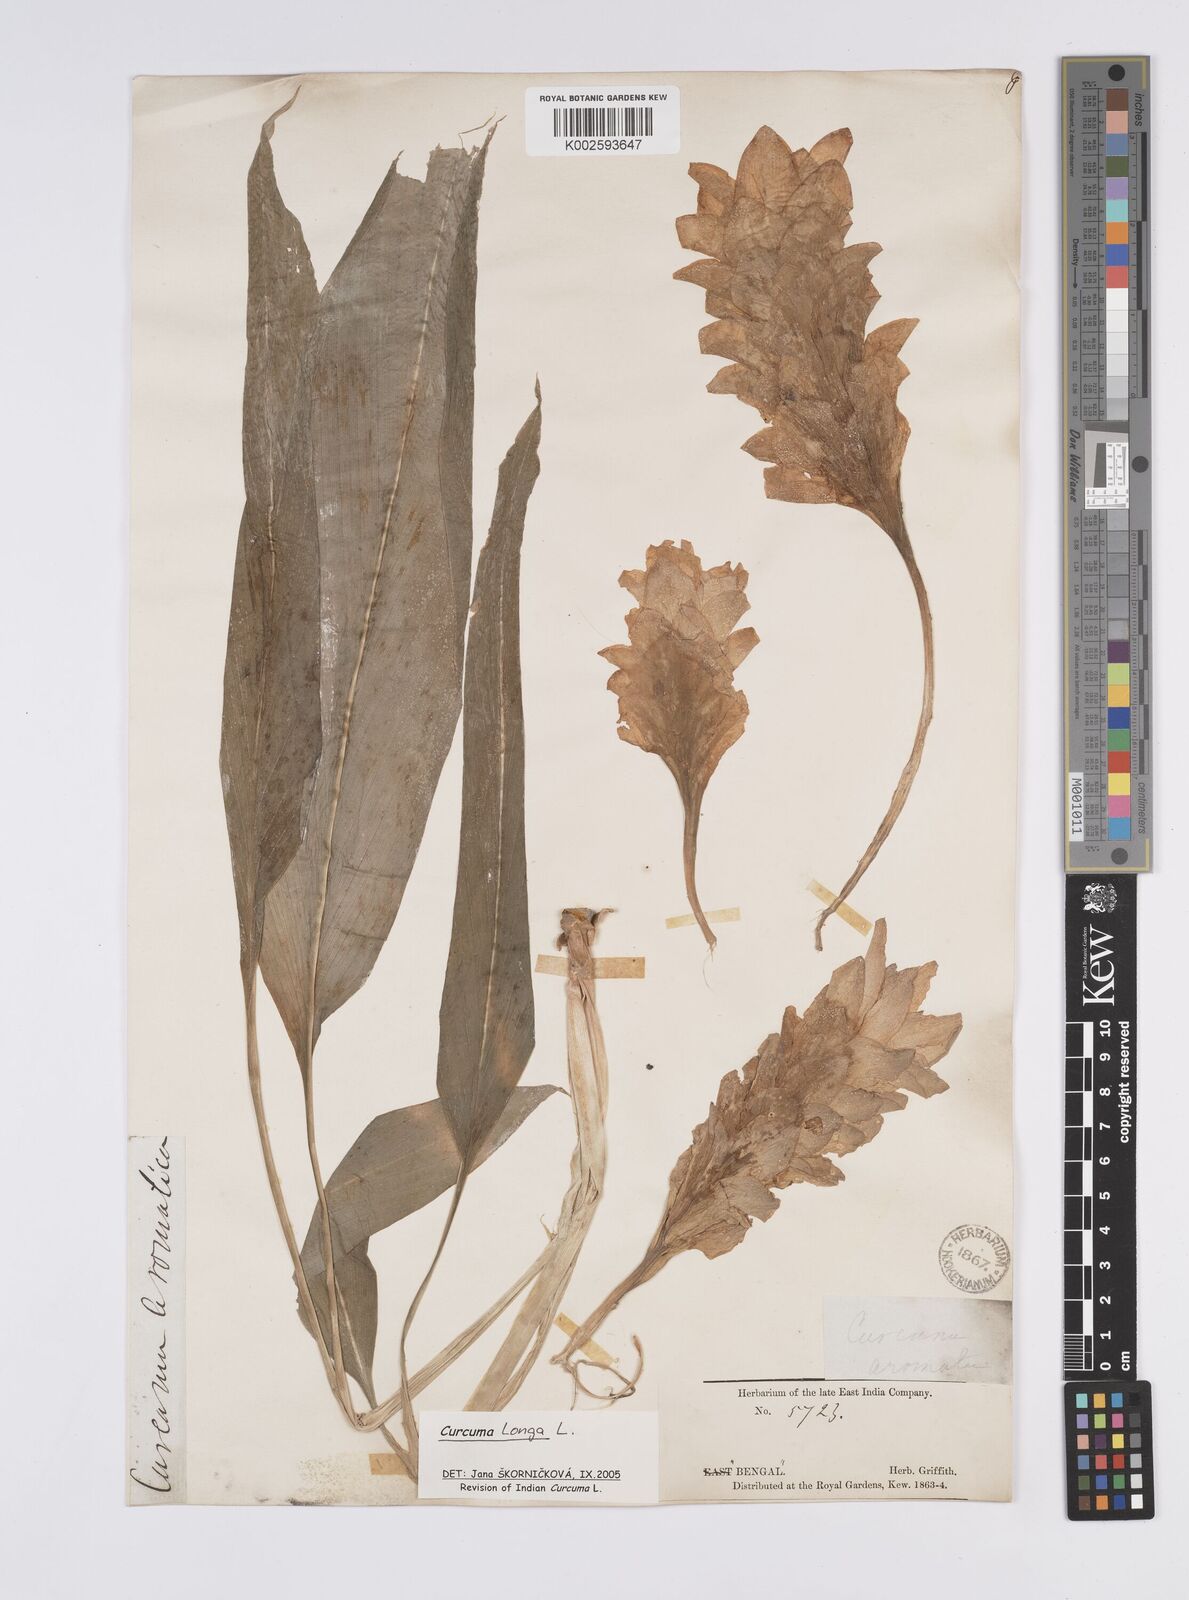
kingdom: Plantae
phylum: Tracheophyta
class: Liliopsida
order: Zingiberales
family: Zingiberaceae
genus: Curcuma
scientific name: Curcuma longa
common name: Turmeric
